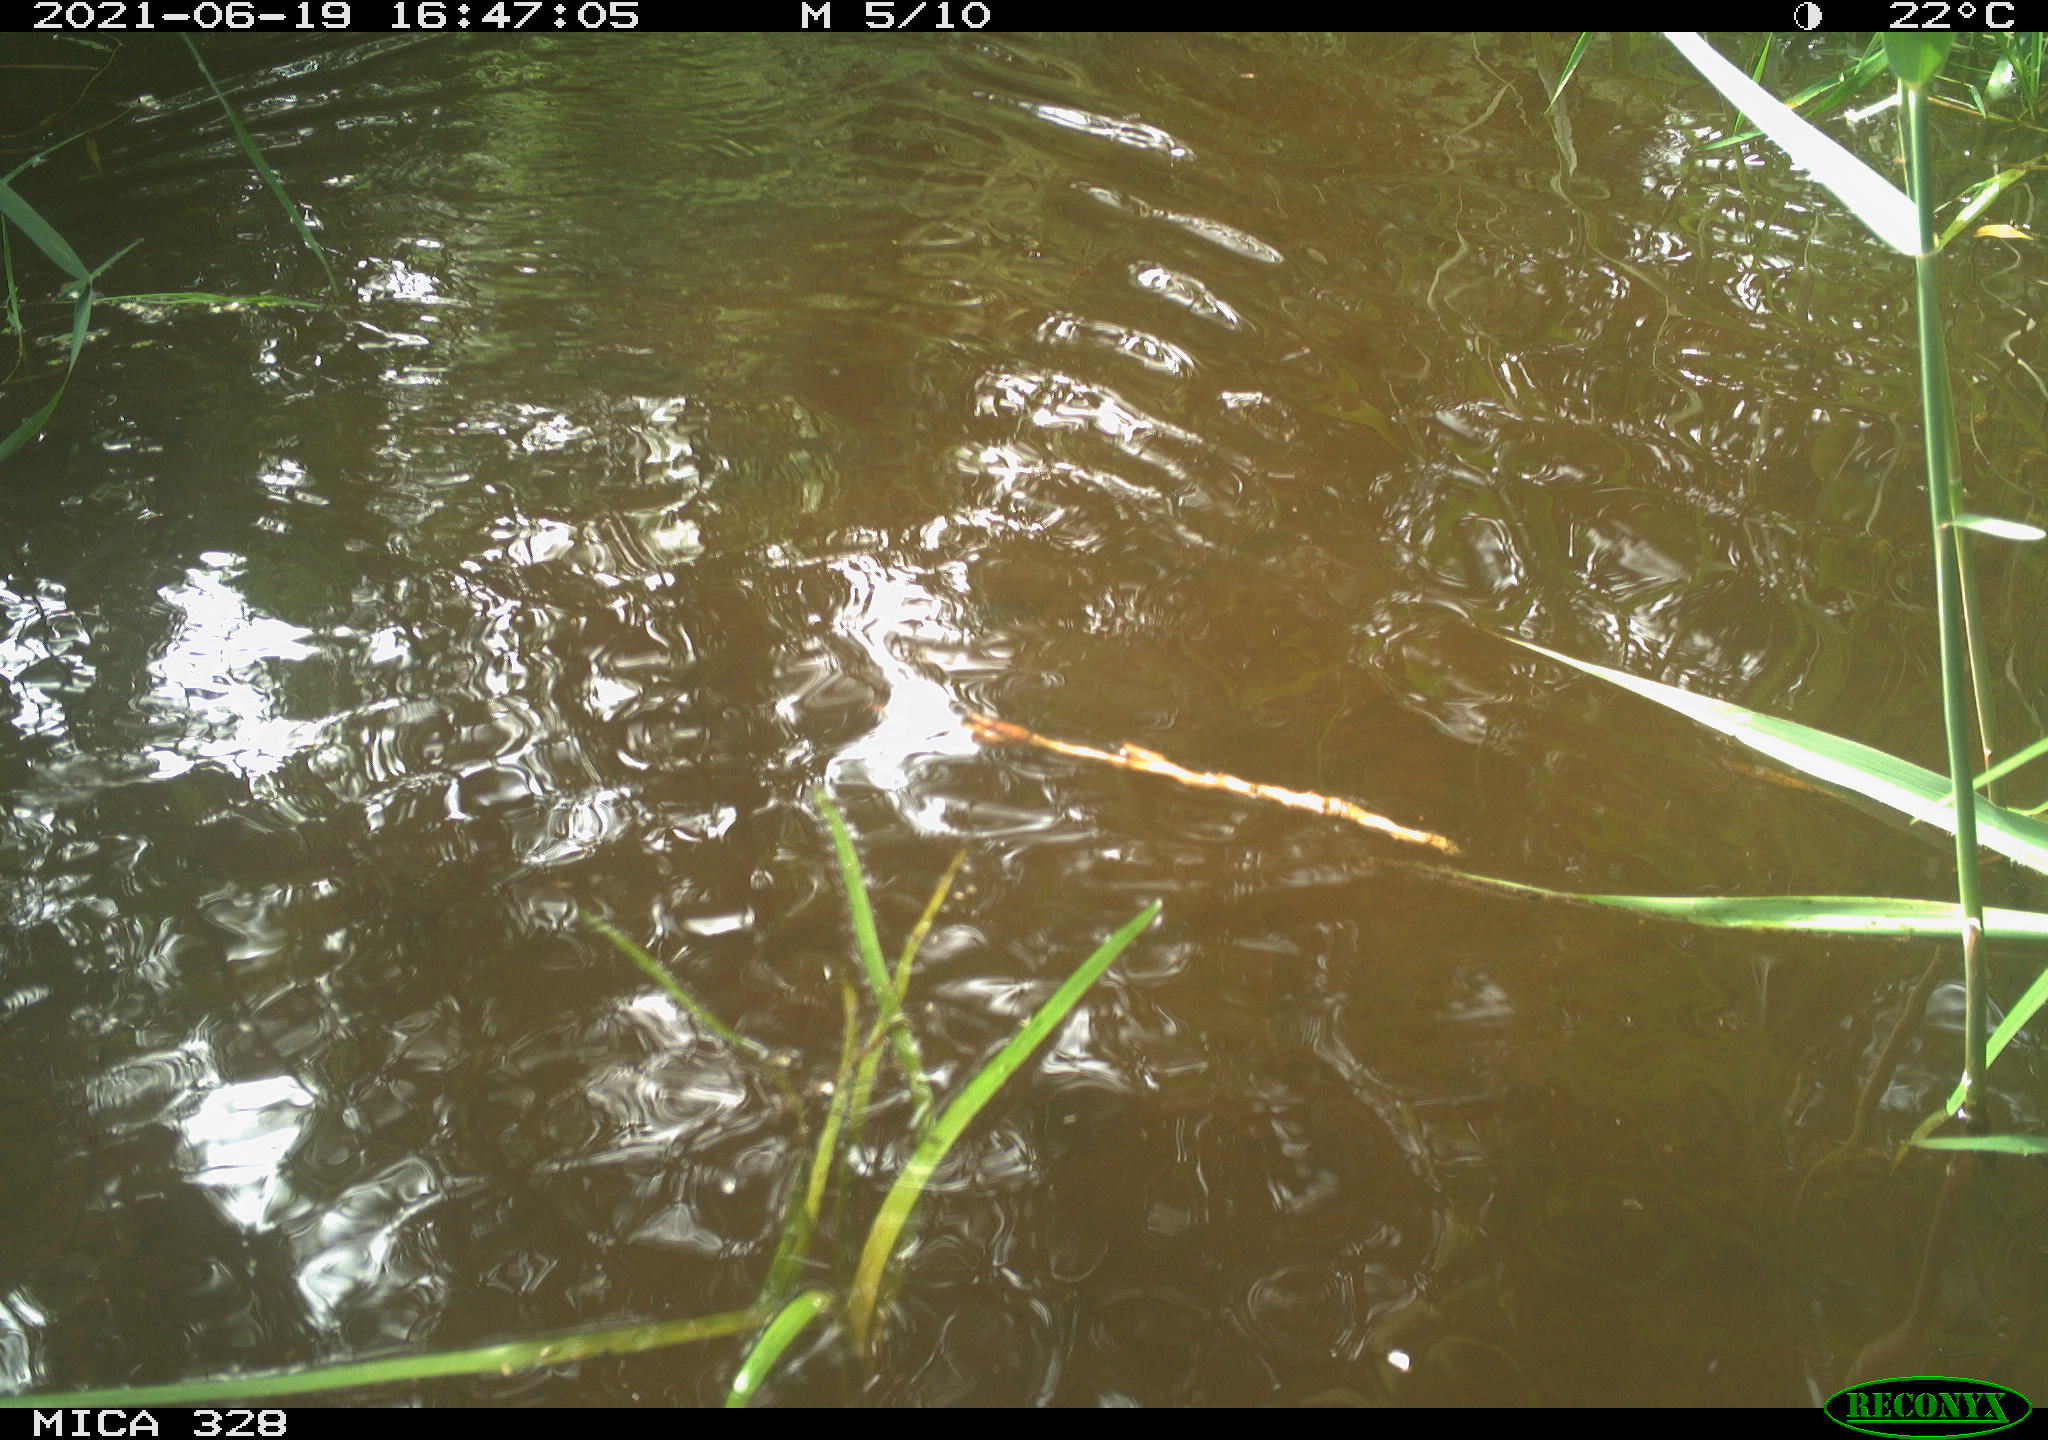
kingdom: Animalia
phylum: Chordata
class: Mammalia
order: Rodentia
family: Cricetidae
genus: Ondatra
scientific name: Ondatra zibethicus
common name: Muskrat
